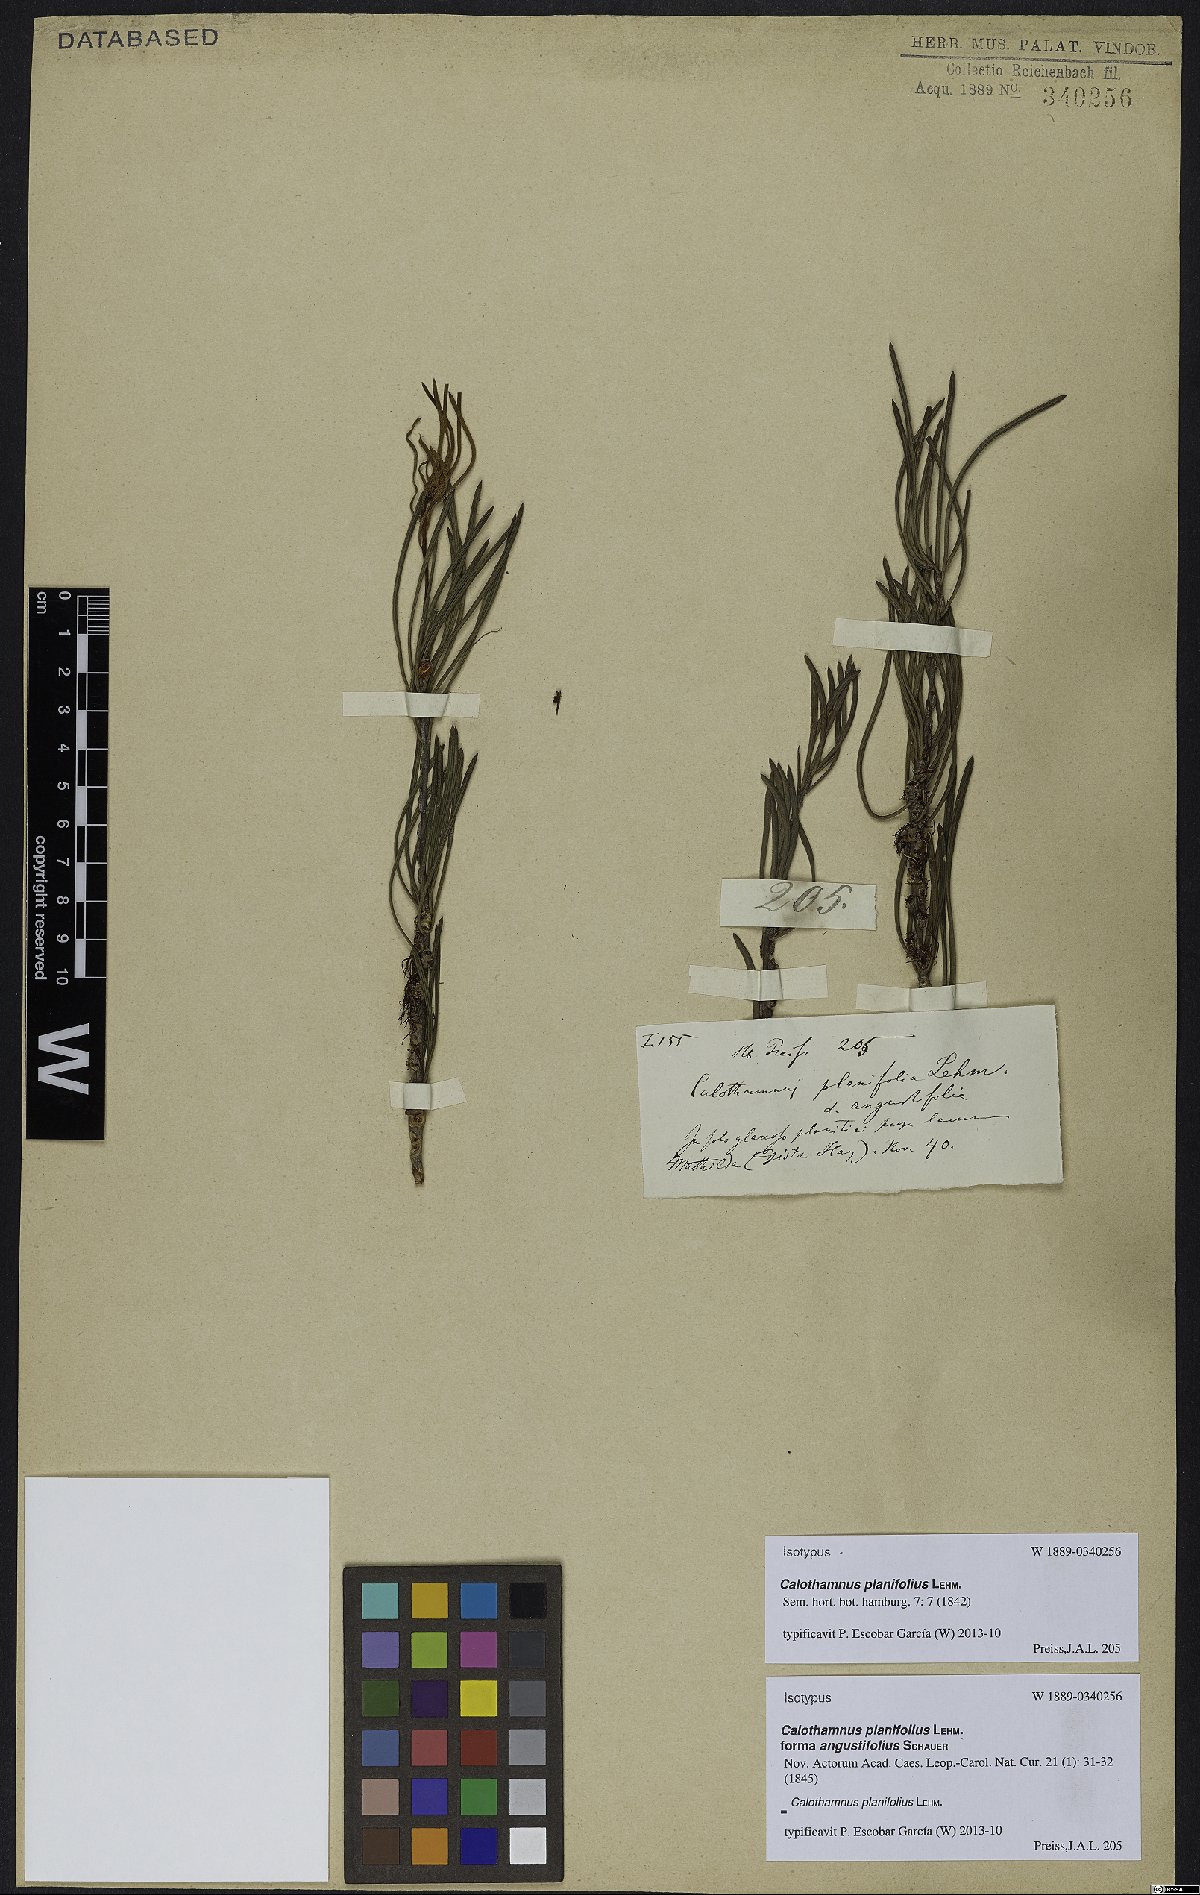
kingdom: Plantae
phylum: Tracheophyta
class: Magnoliopsida
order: Myrtales
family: Myrtaceae
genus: Melaleuca
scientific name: Melaleuca planifolia
